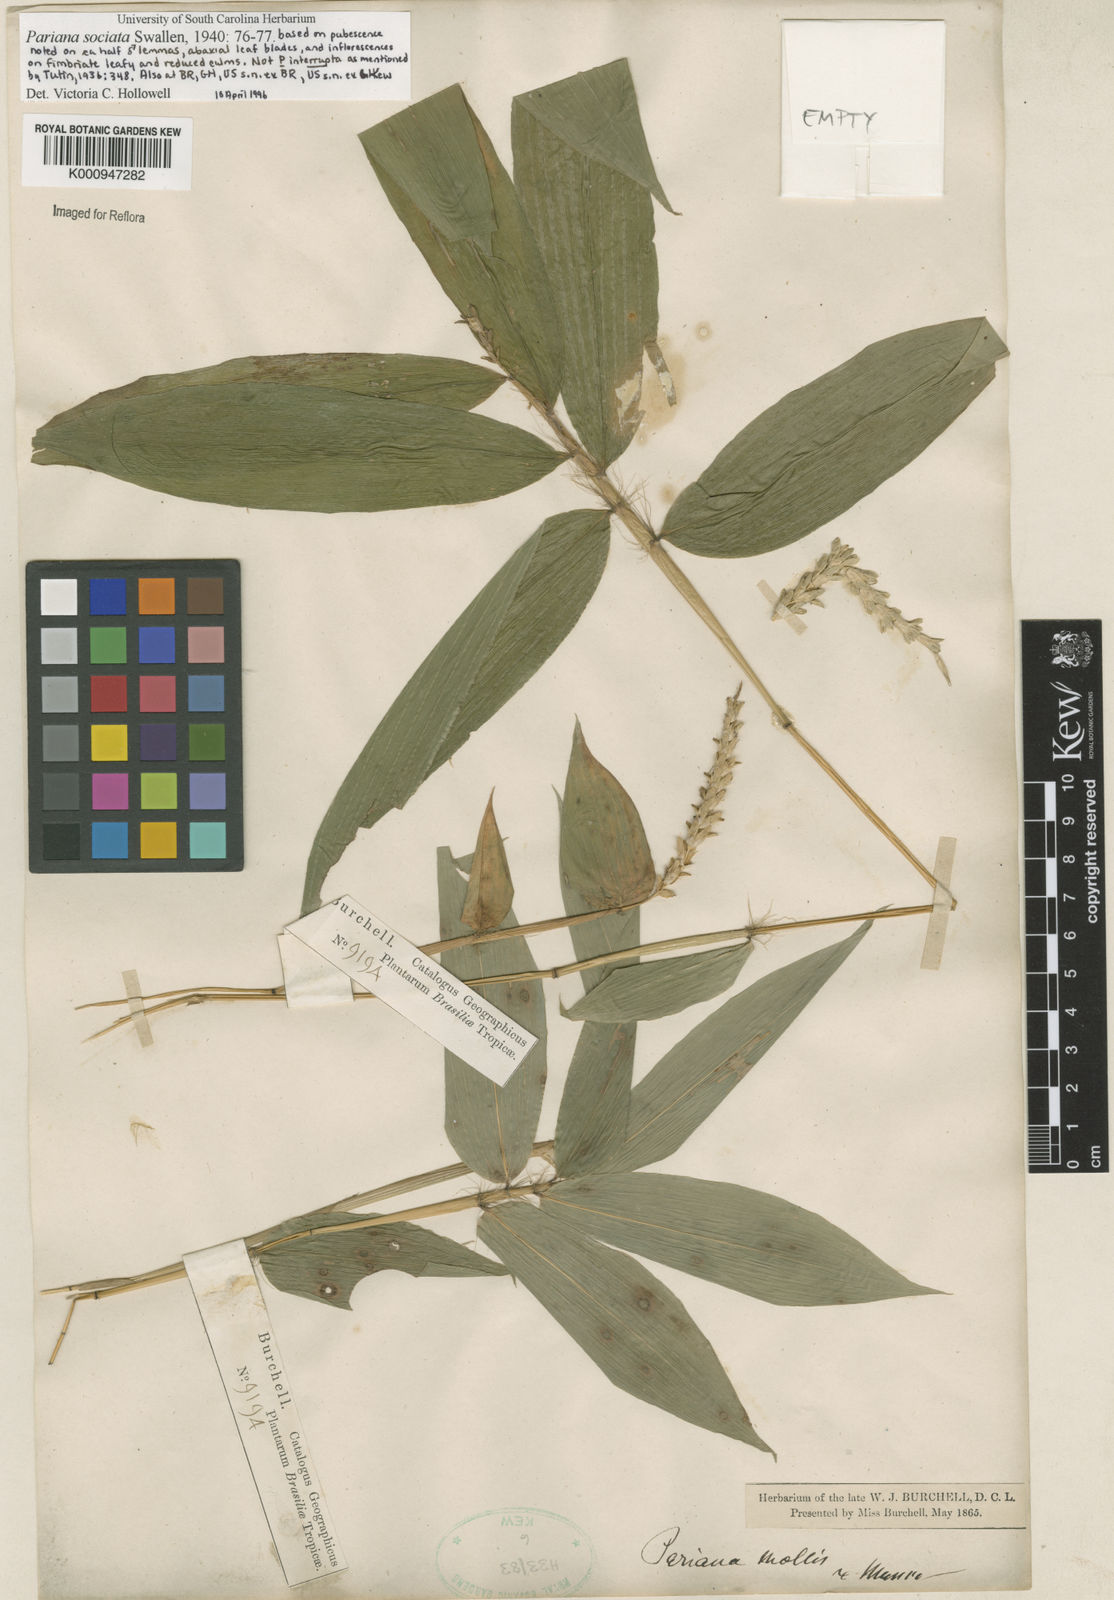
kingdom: Plantae
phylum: Tracheophyta
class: Liliopsida
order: Poales
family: Poaceae
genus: Pariana
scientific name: Pariana sociata
